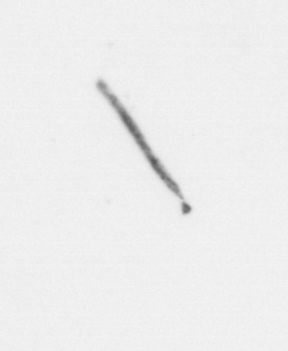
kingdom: Chromista
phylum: Ochrophyta
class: Bacillariophyceae
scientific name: Bacillariophyceae
